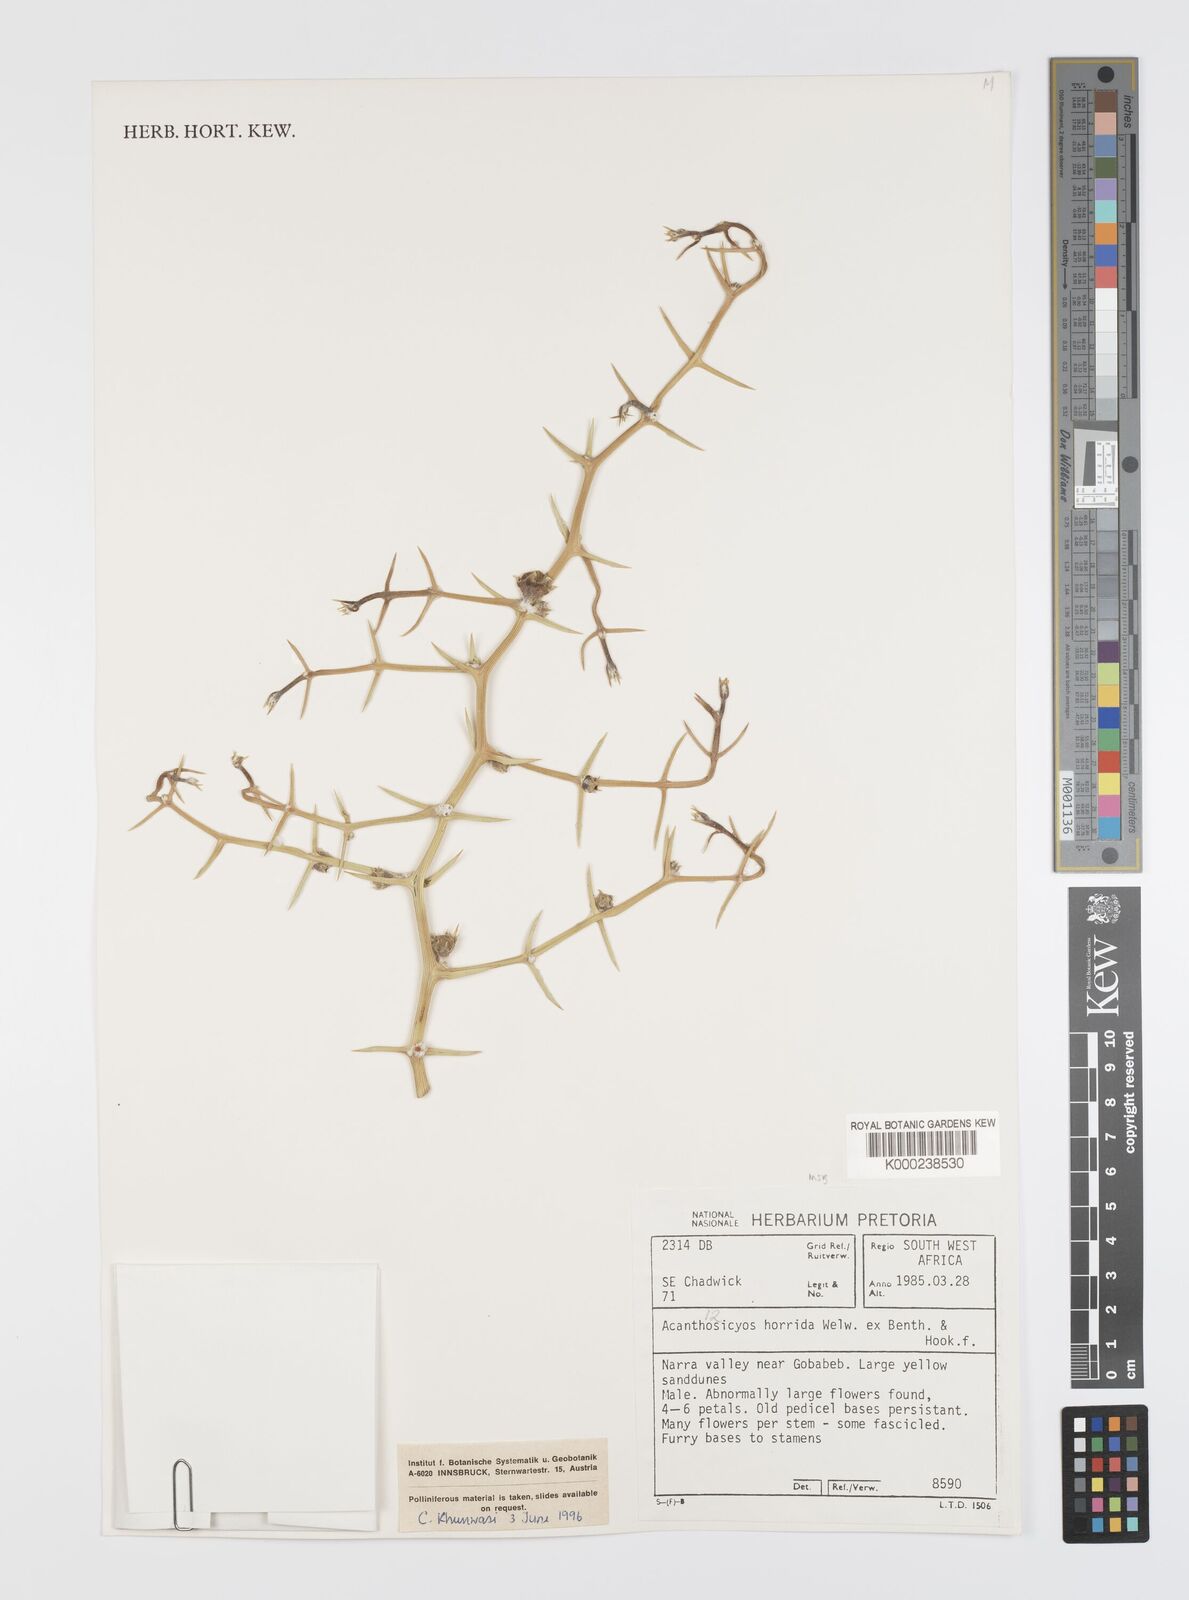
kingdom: Plantae
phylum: Tracheophyta
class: Magnoliopsida
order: Cucurbitales
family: Cucurbitaceae
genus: Acanthosicyos
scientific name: Acanthosicyos horridus
